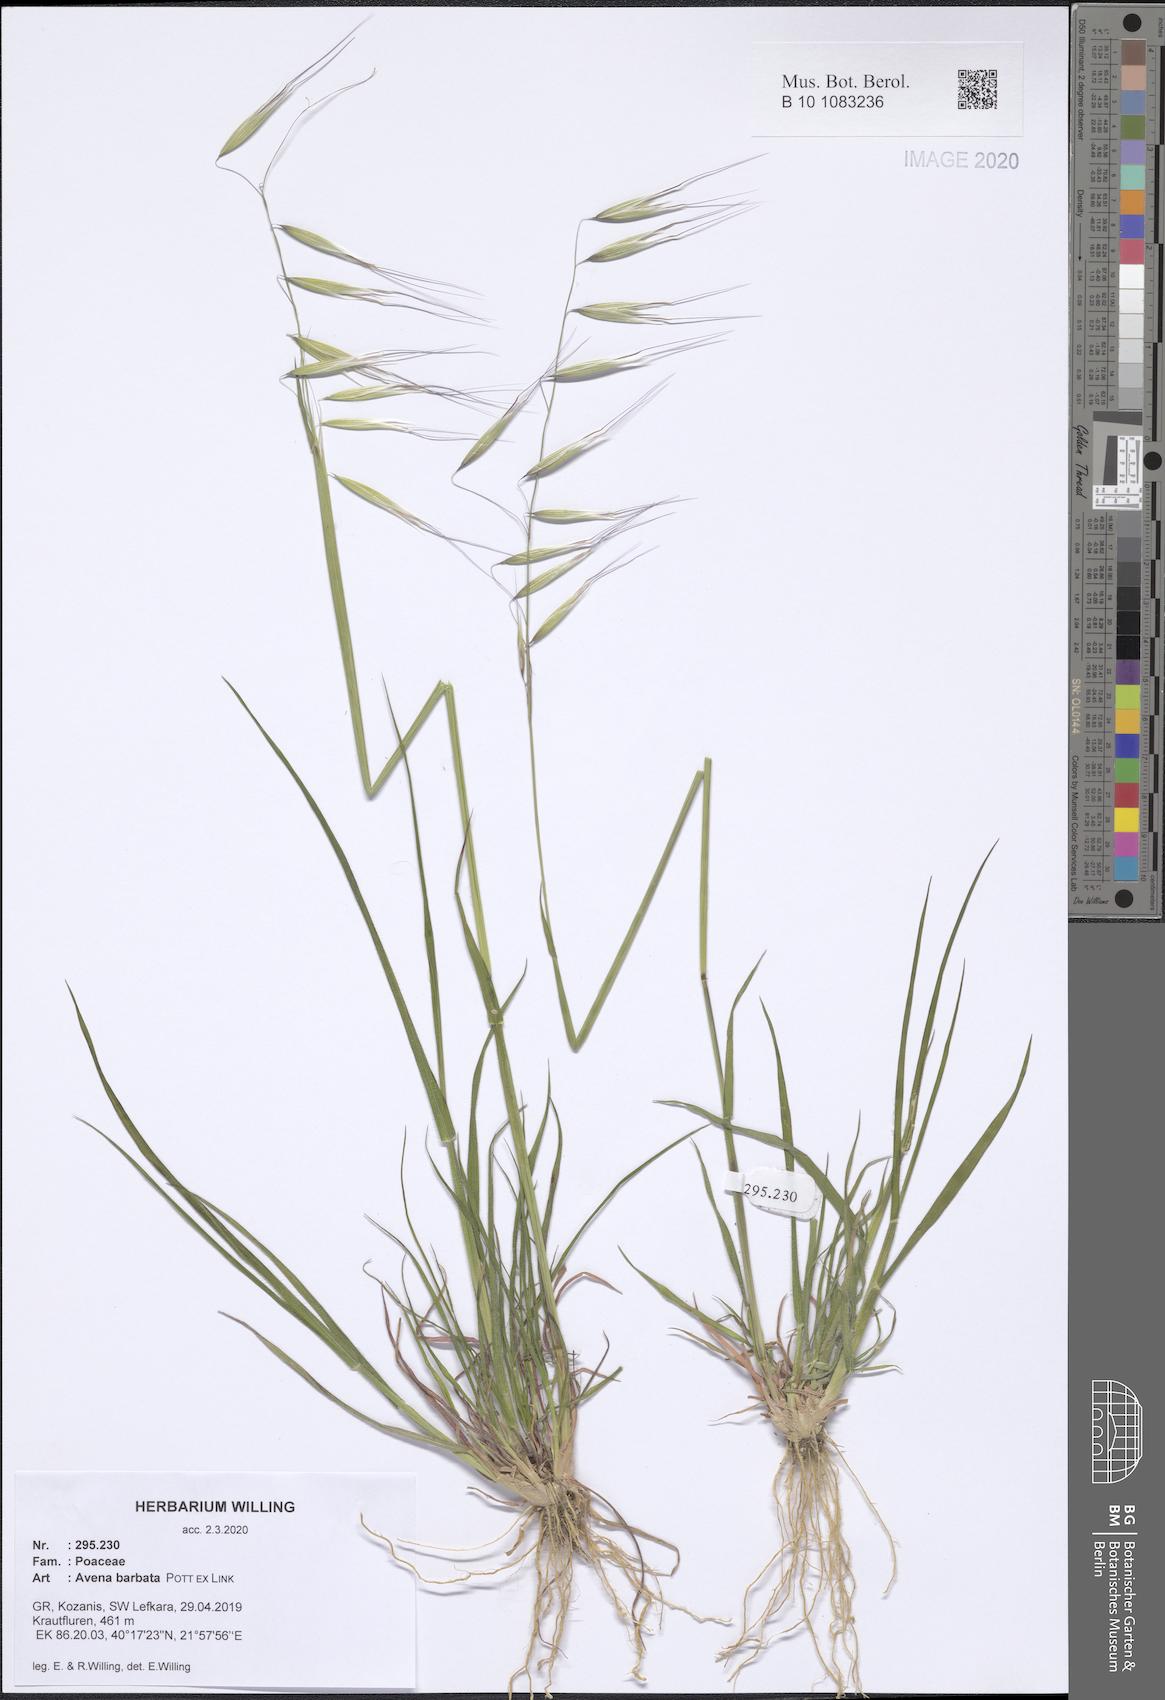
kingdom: Plantae
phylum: Tracheophyta
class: Liliopsida
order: Poales
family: Poaceae
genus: Avena
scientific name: Avena barbata
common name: Slender oat
